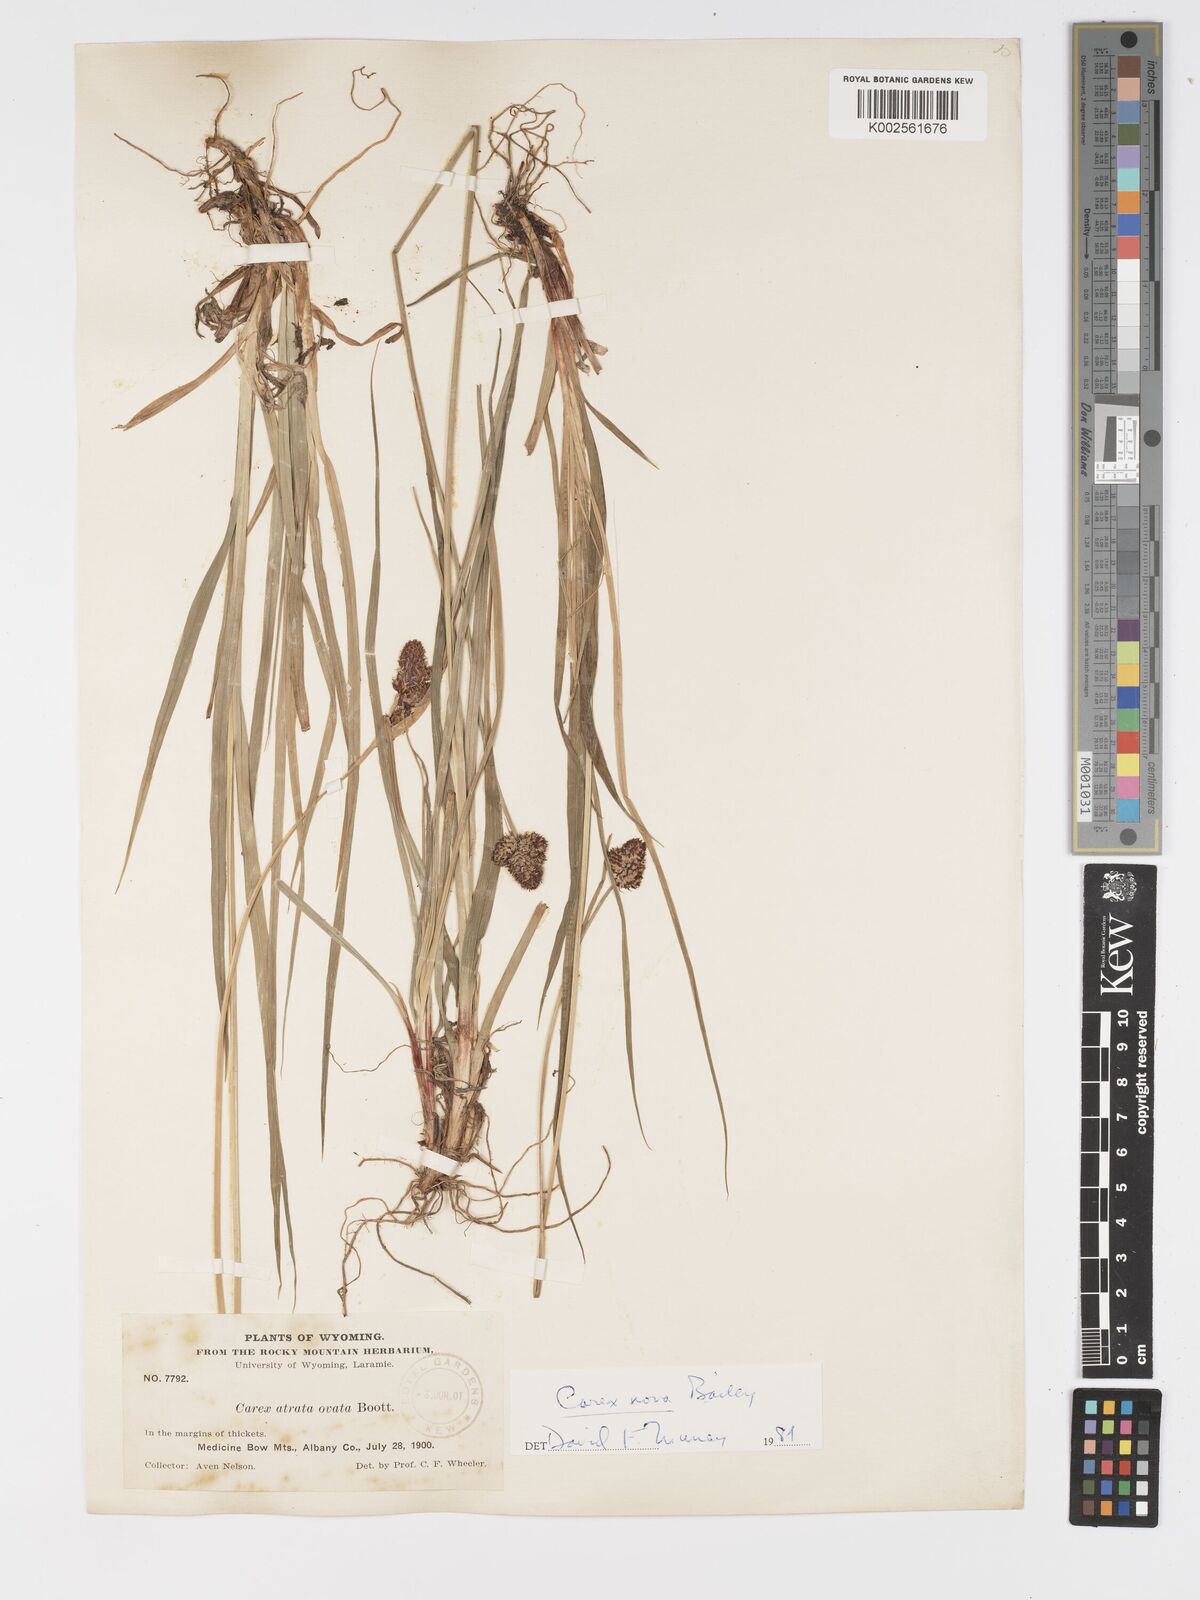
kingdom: Plantae
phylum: Tracheophyta
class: Liliopsida
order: Poales
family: Cyperaceae
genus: Carex
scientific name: Carex nova
